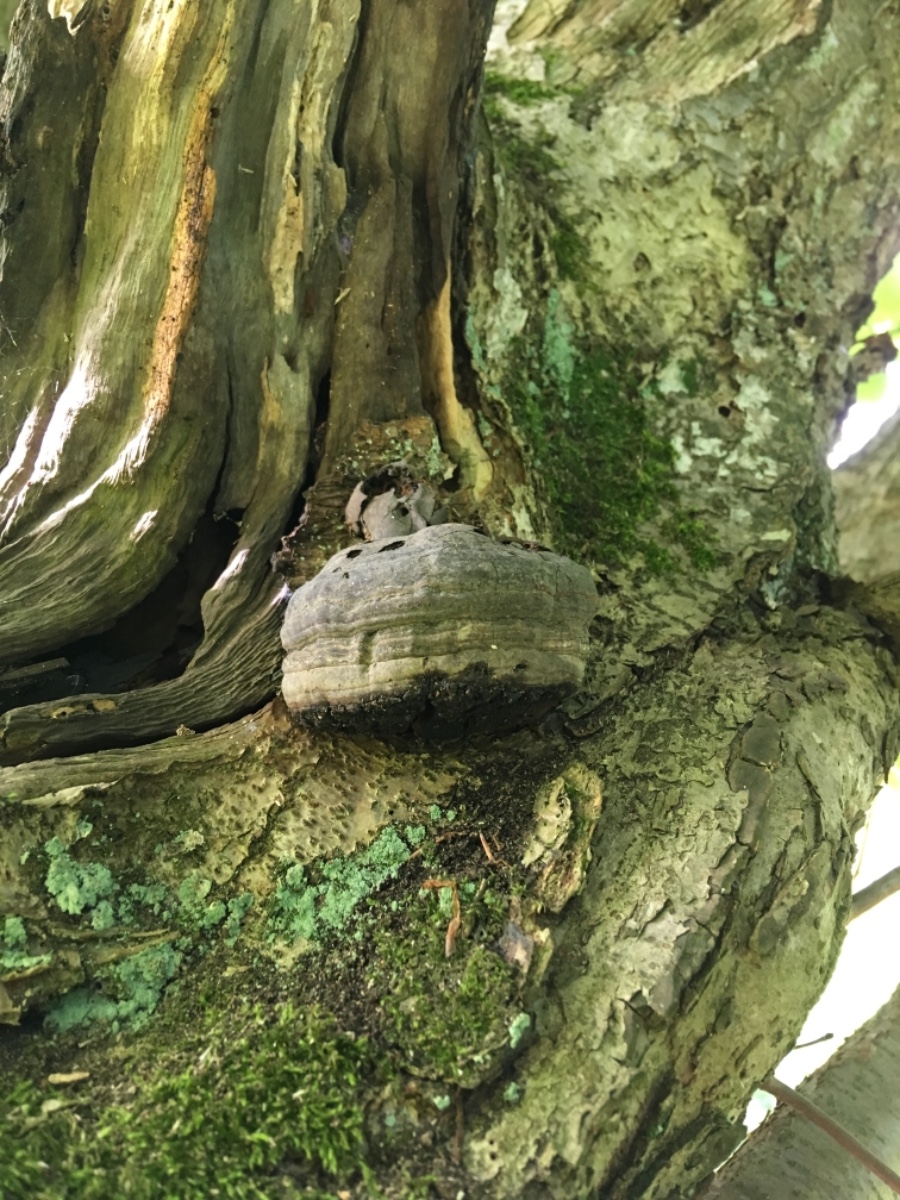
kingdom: Fungi
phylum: Basidiomycota
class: Agaricomycetes
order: Polyporales
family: Polyporaceae
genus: Fomes
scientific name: Fomes fomentarius
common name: tøndersvamp
